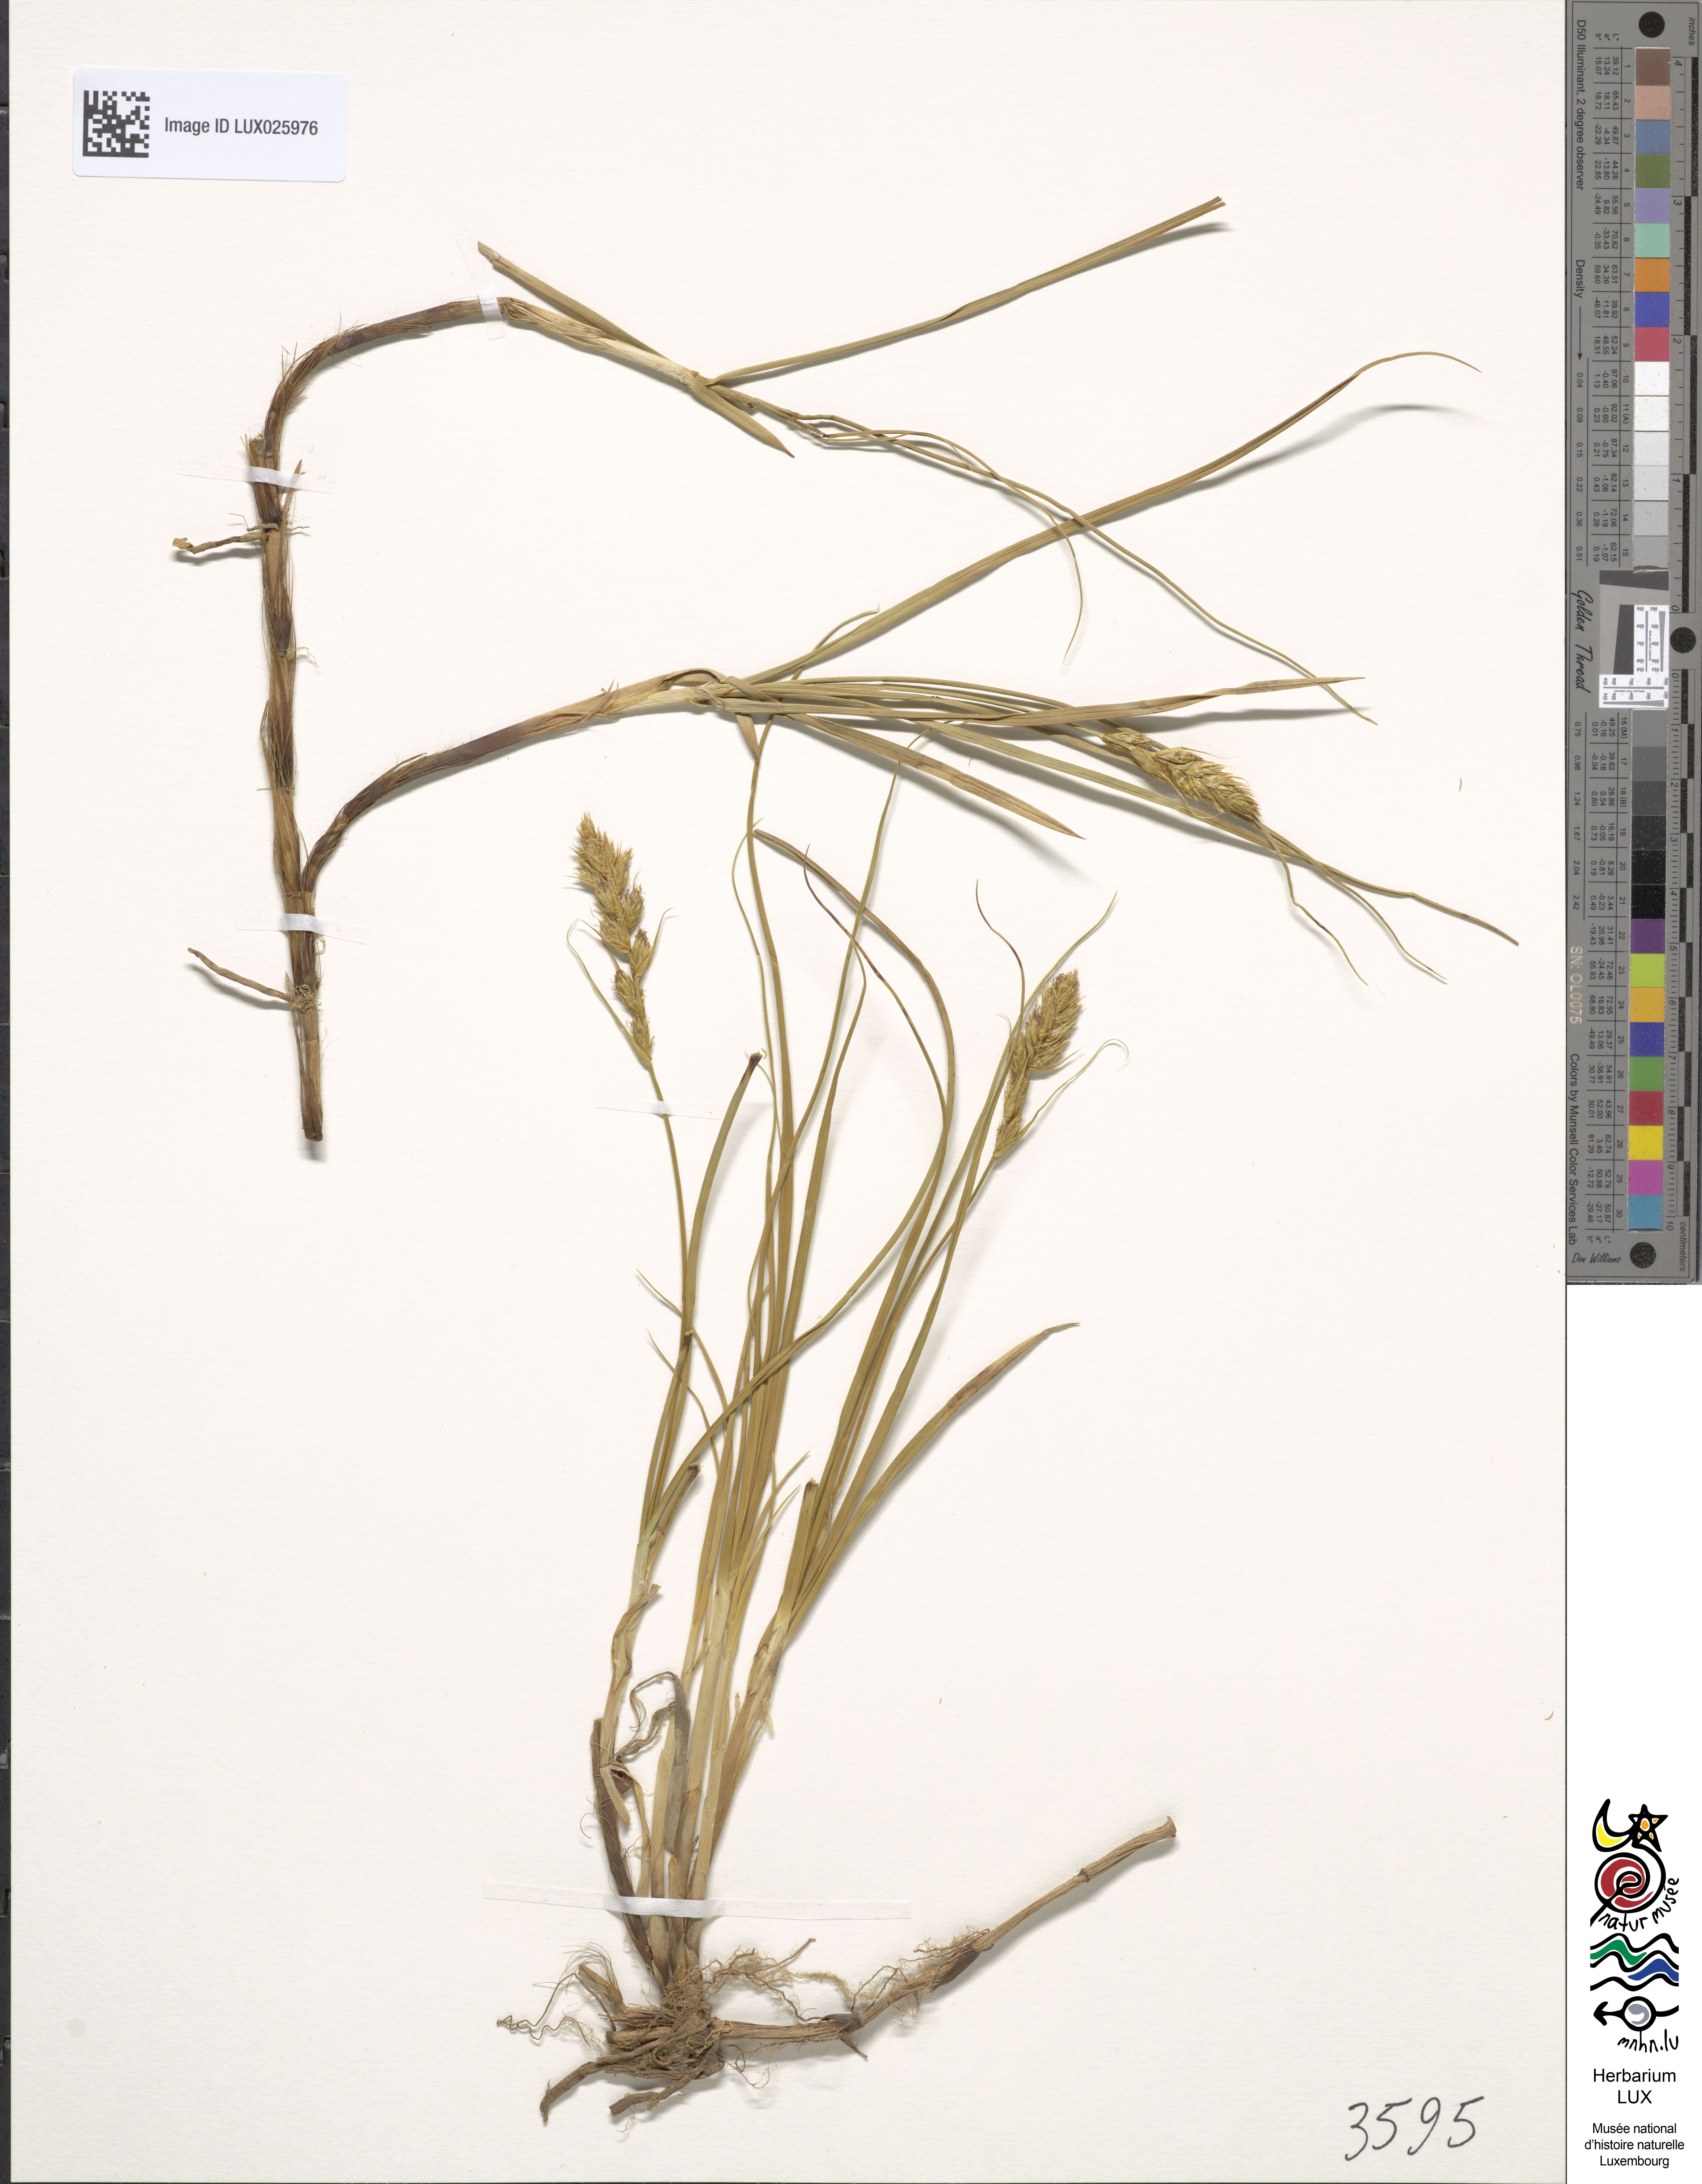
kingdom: Plantae
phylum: Tracheophyta
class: Liliopsida
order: Poales
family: Cyperaceae
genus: Carex
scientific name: Carex arenaria
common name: Sand sedge
